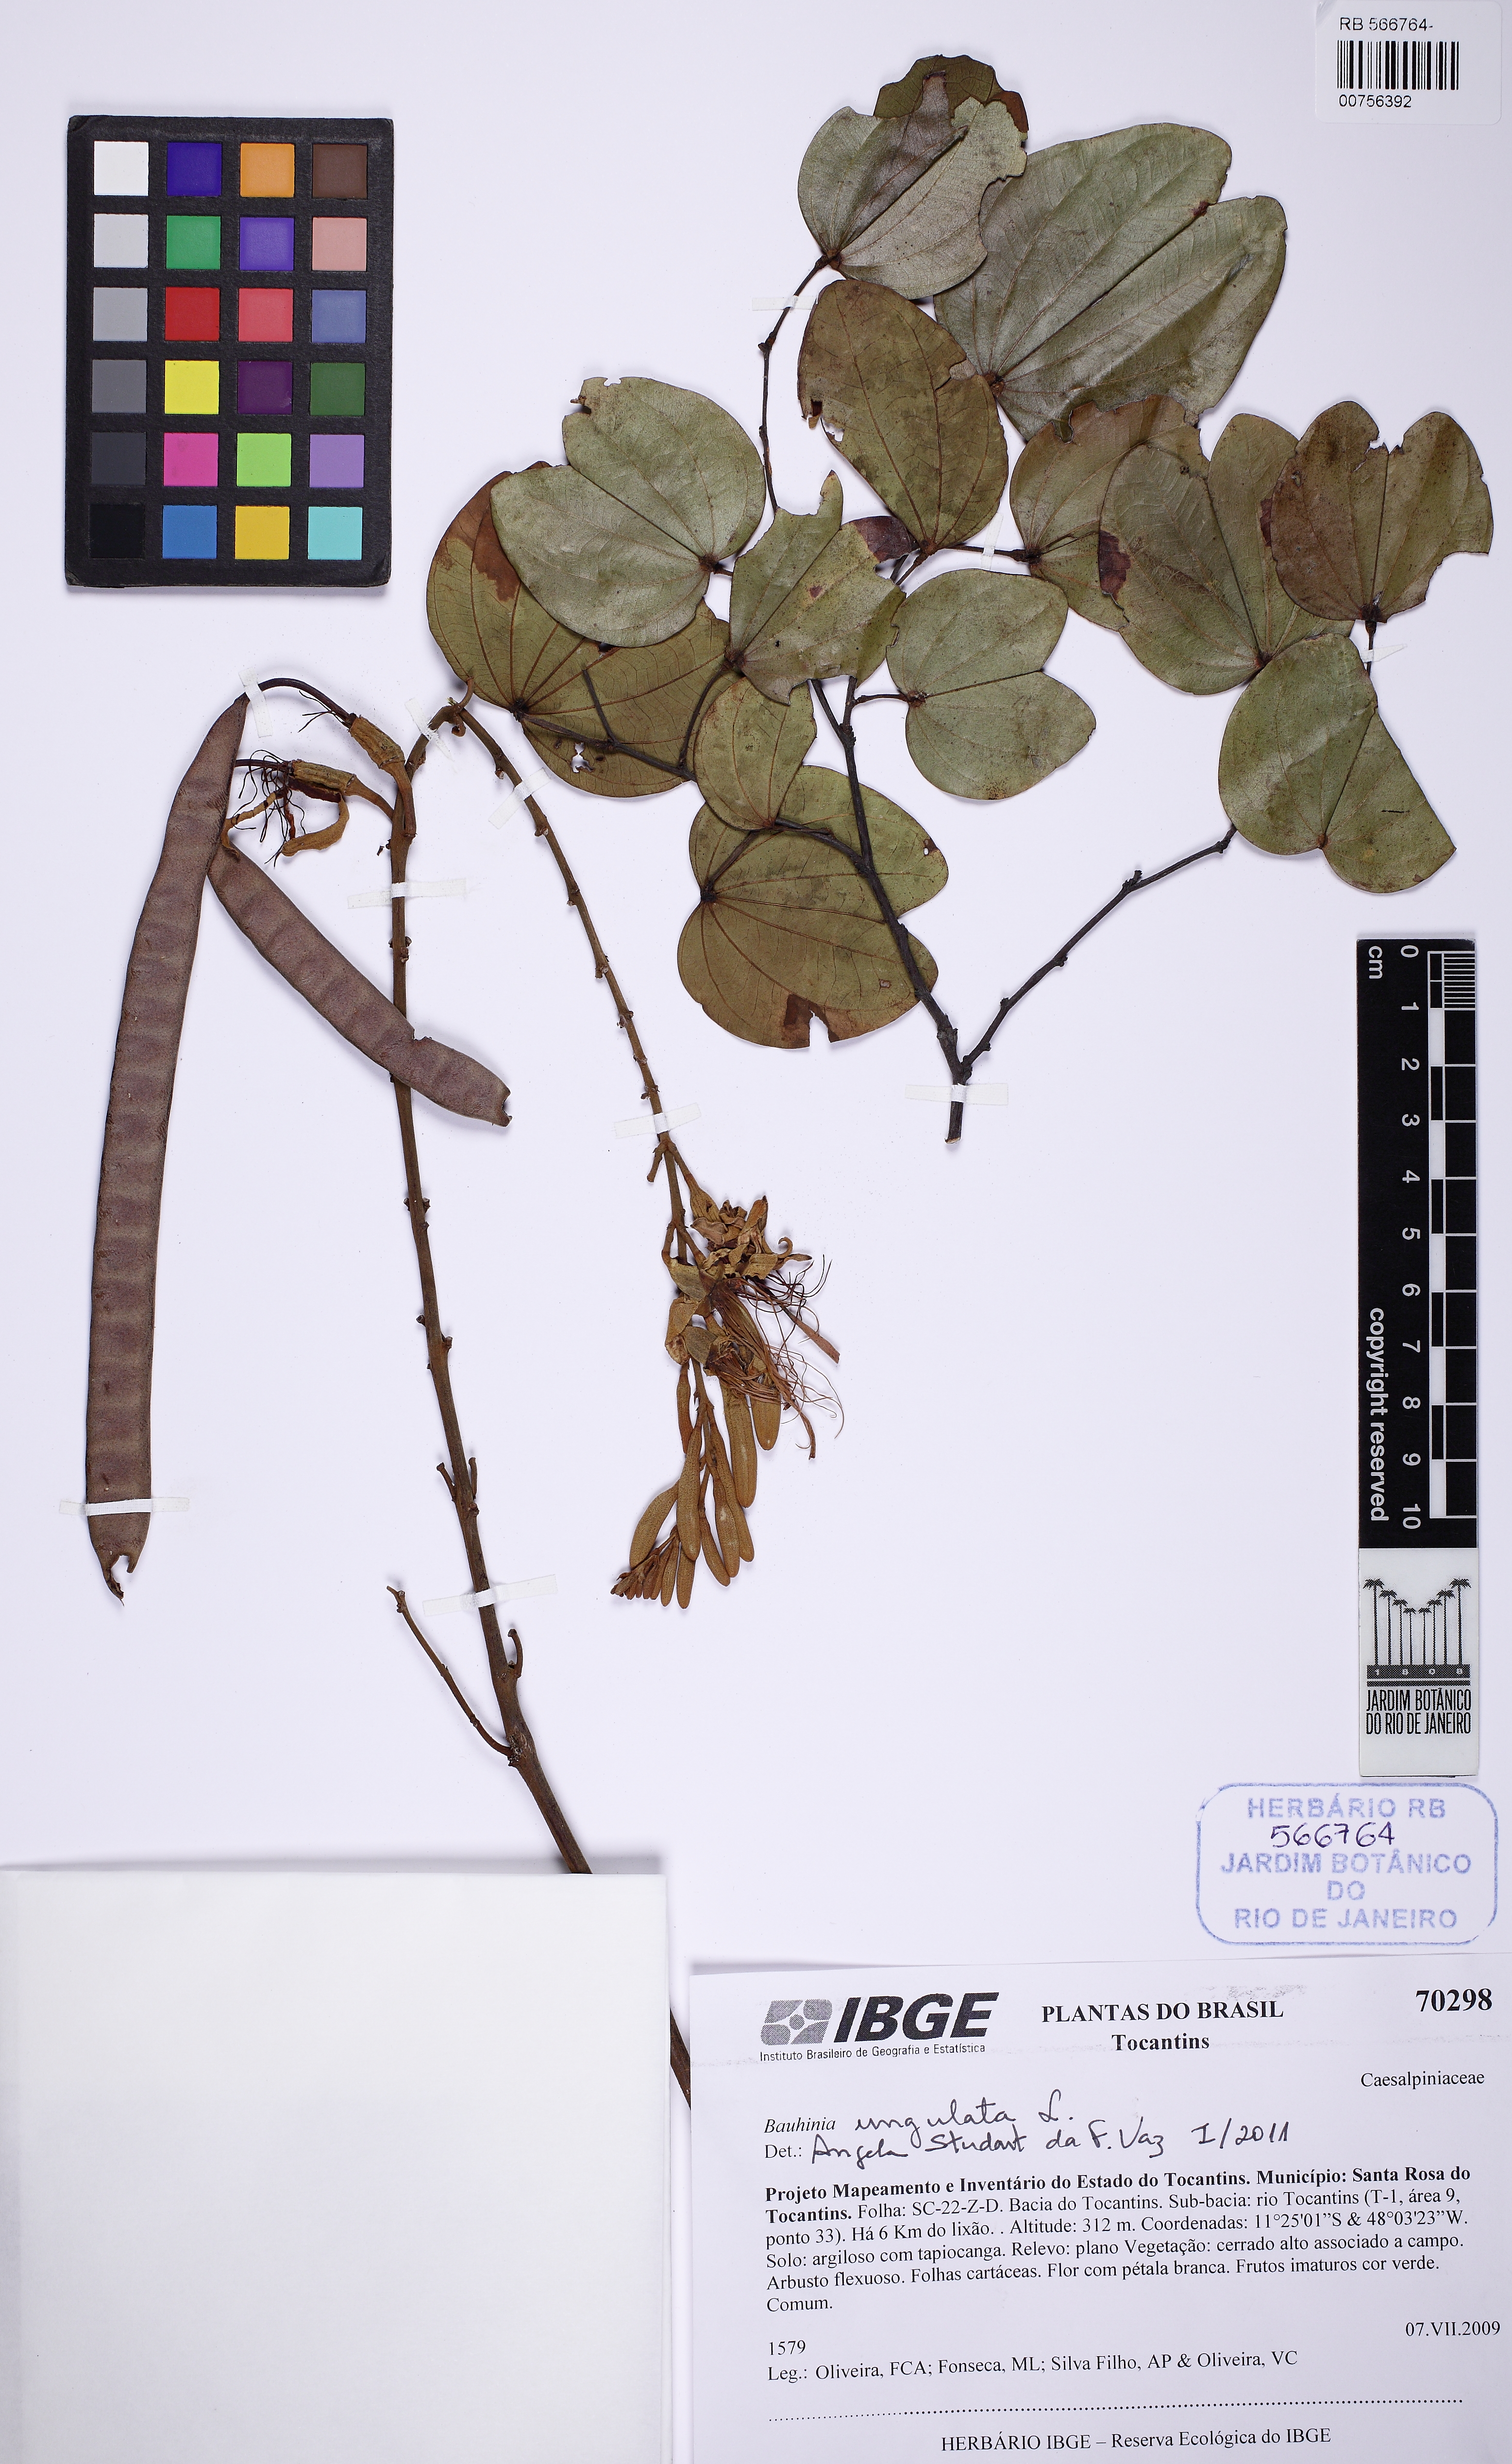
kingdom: Plantae
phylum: Tracheophyta
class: Magnoliopsida
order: Fabales
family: Fabaceae
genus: Bauhinia
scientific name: Bauhinia ungulata
